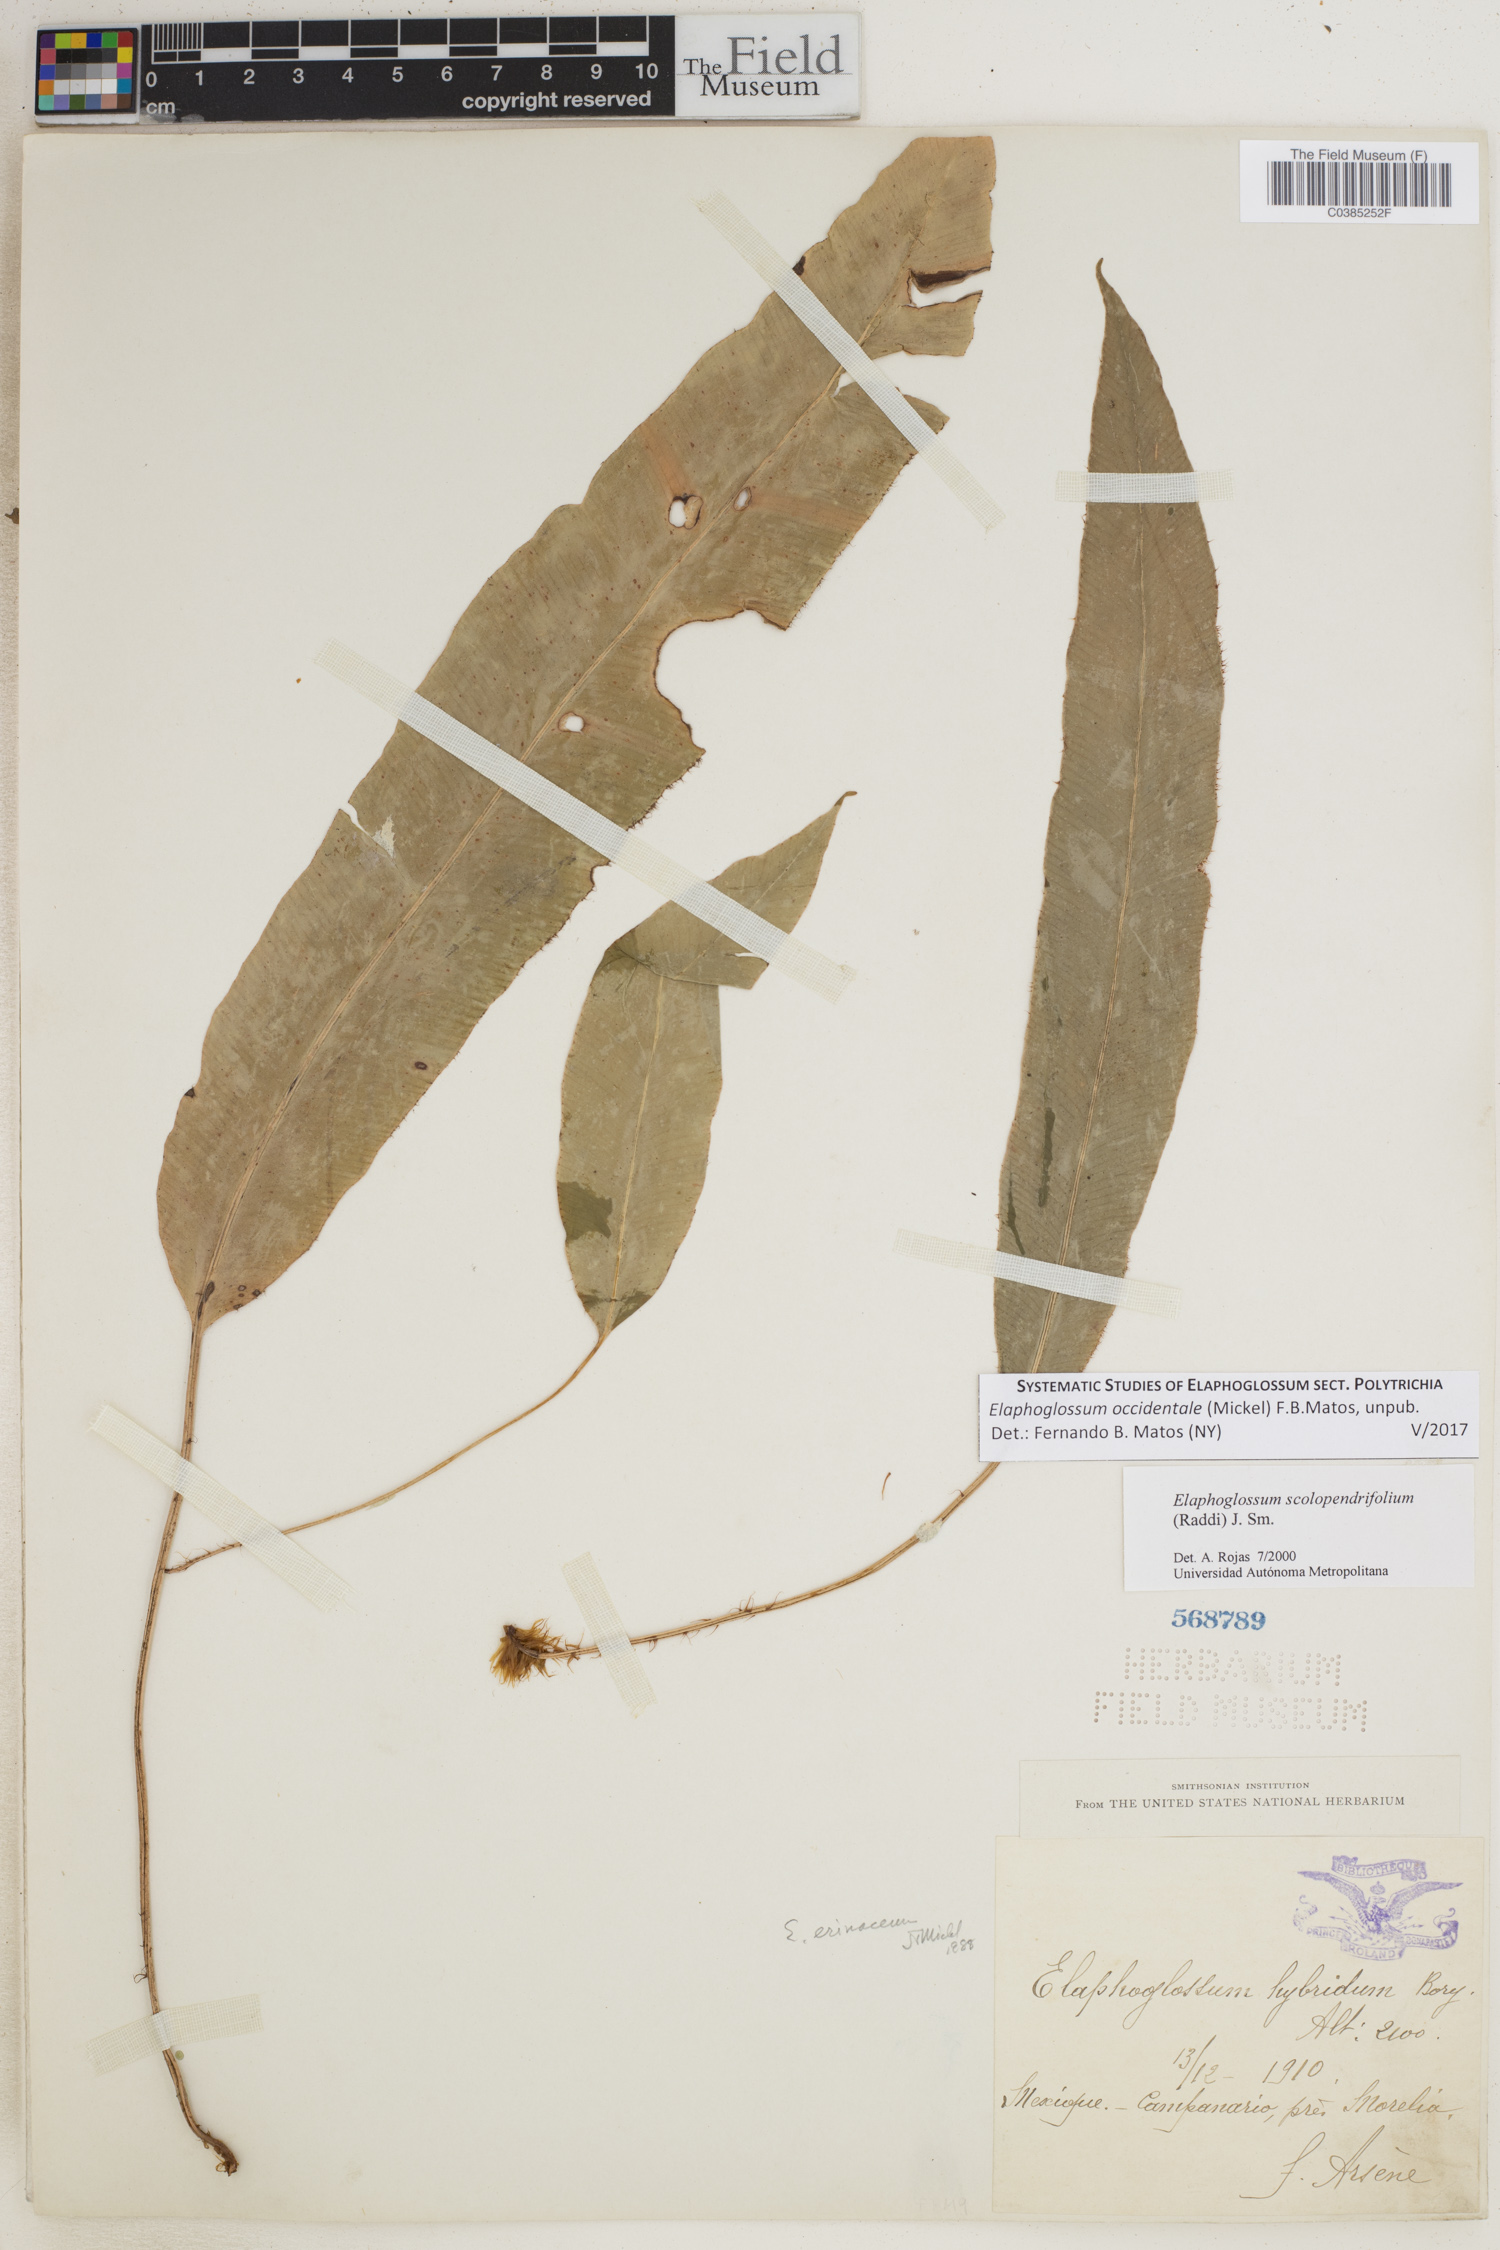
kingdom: Plantae
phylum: Tracheophyta
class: Polypodiopsida
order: Polypodiales
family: Dryopteridaceae
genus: Elaphoglossum
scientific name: Elaphoglossum scolopendrifolium
